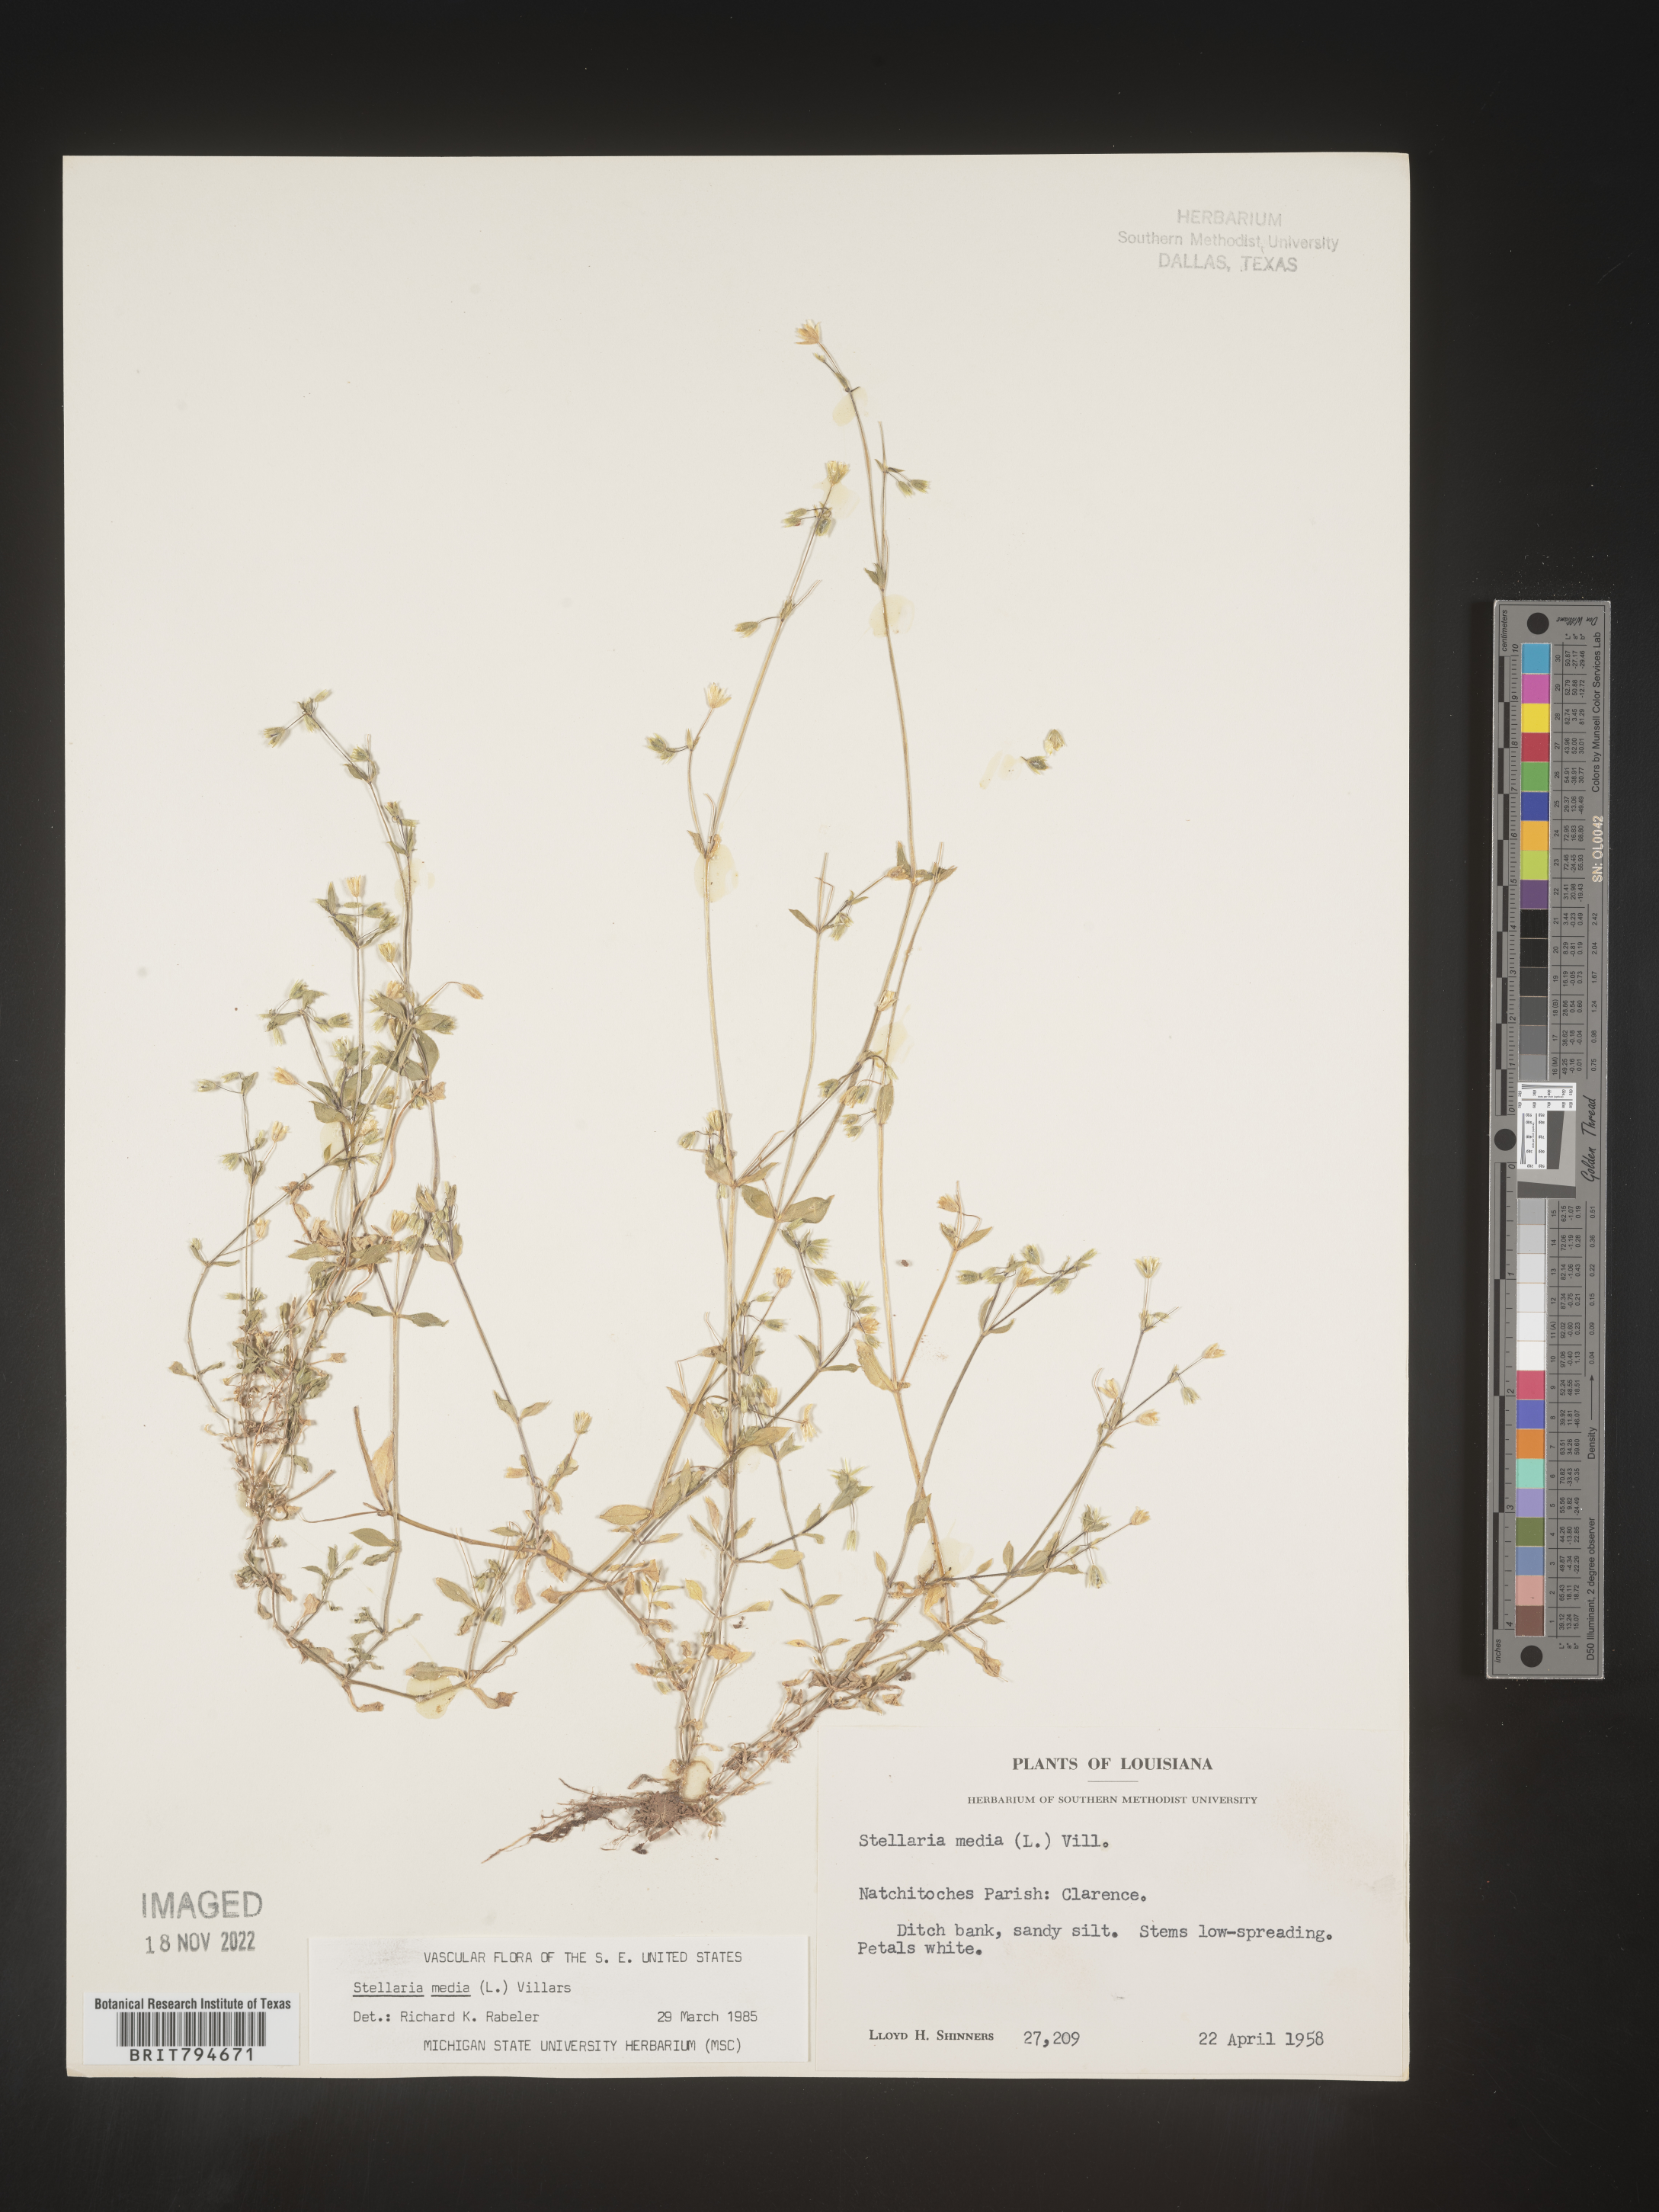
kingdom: Plantae
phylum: Tracheophyta
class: Magnoliopsida
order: Caryophyllales
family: Caryophyllaceae
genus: Stellaria
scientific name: Stellaria media
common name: Common chickweed
